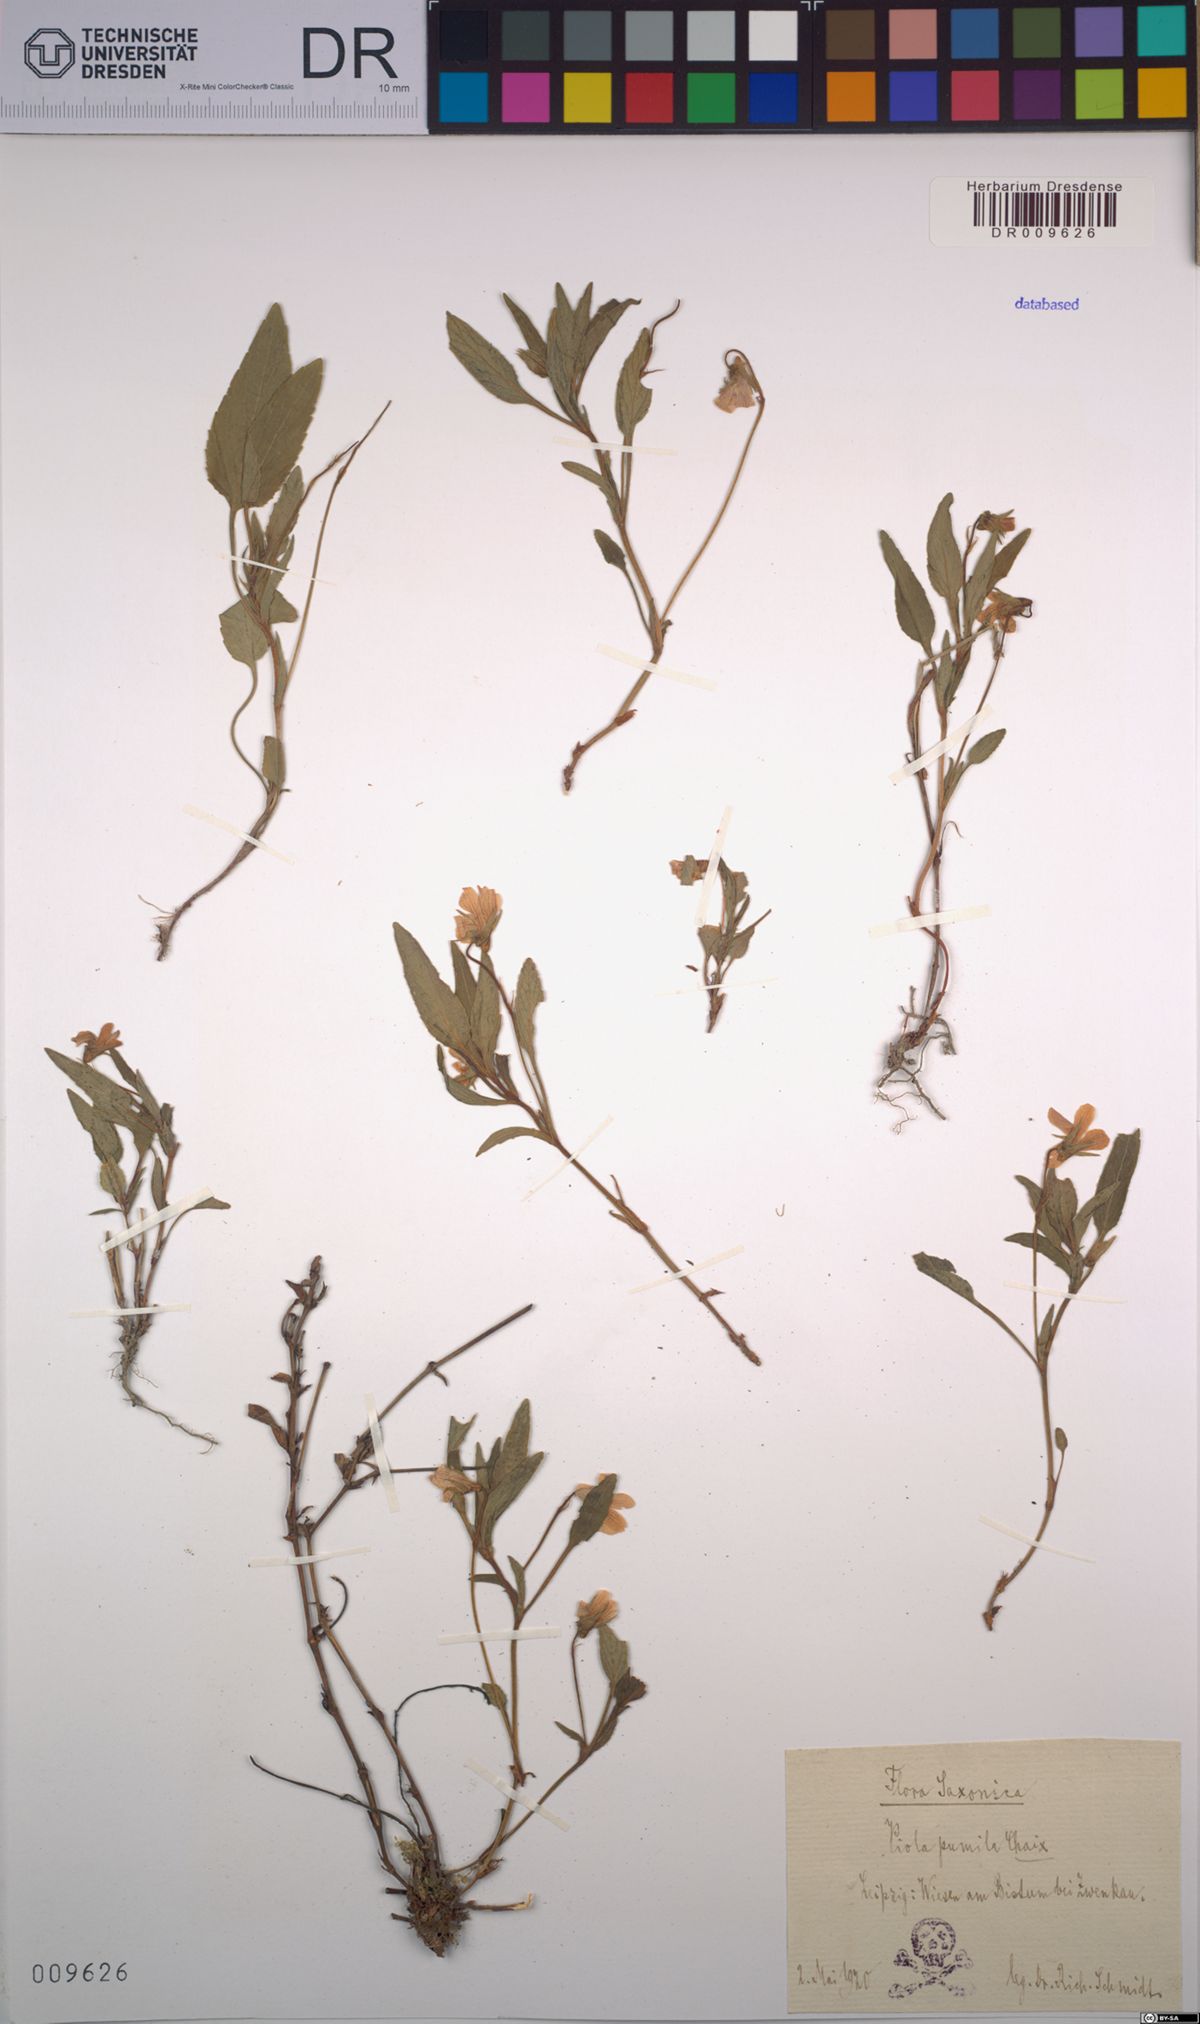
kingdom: Plantae
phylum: Tracheophyta
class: Magnoliopsida
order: Malpighiales
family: Violaceae
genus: Viola
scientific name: Viola pumila
